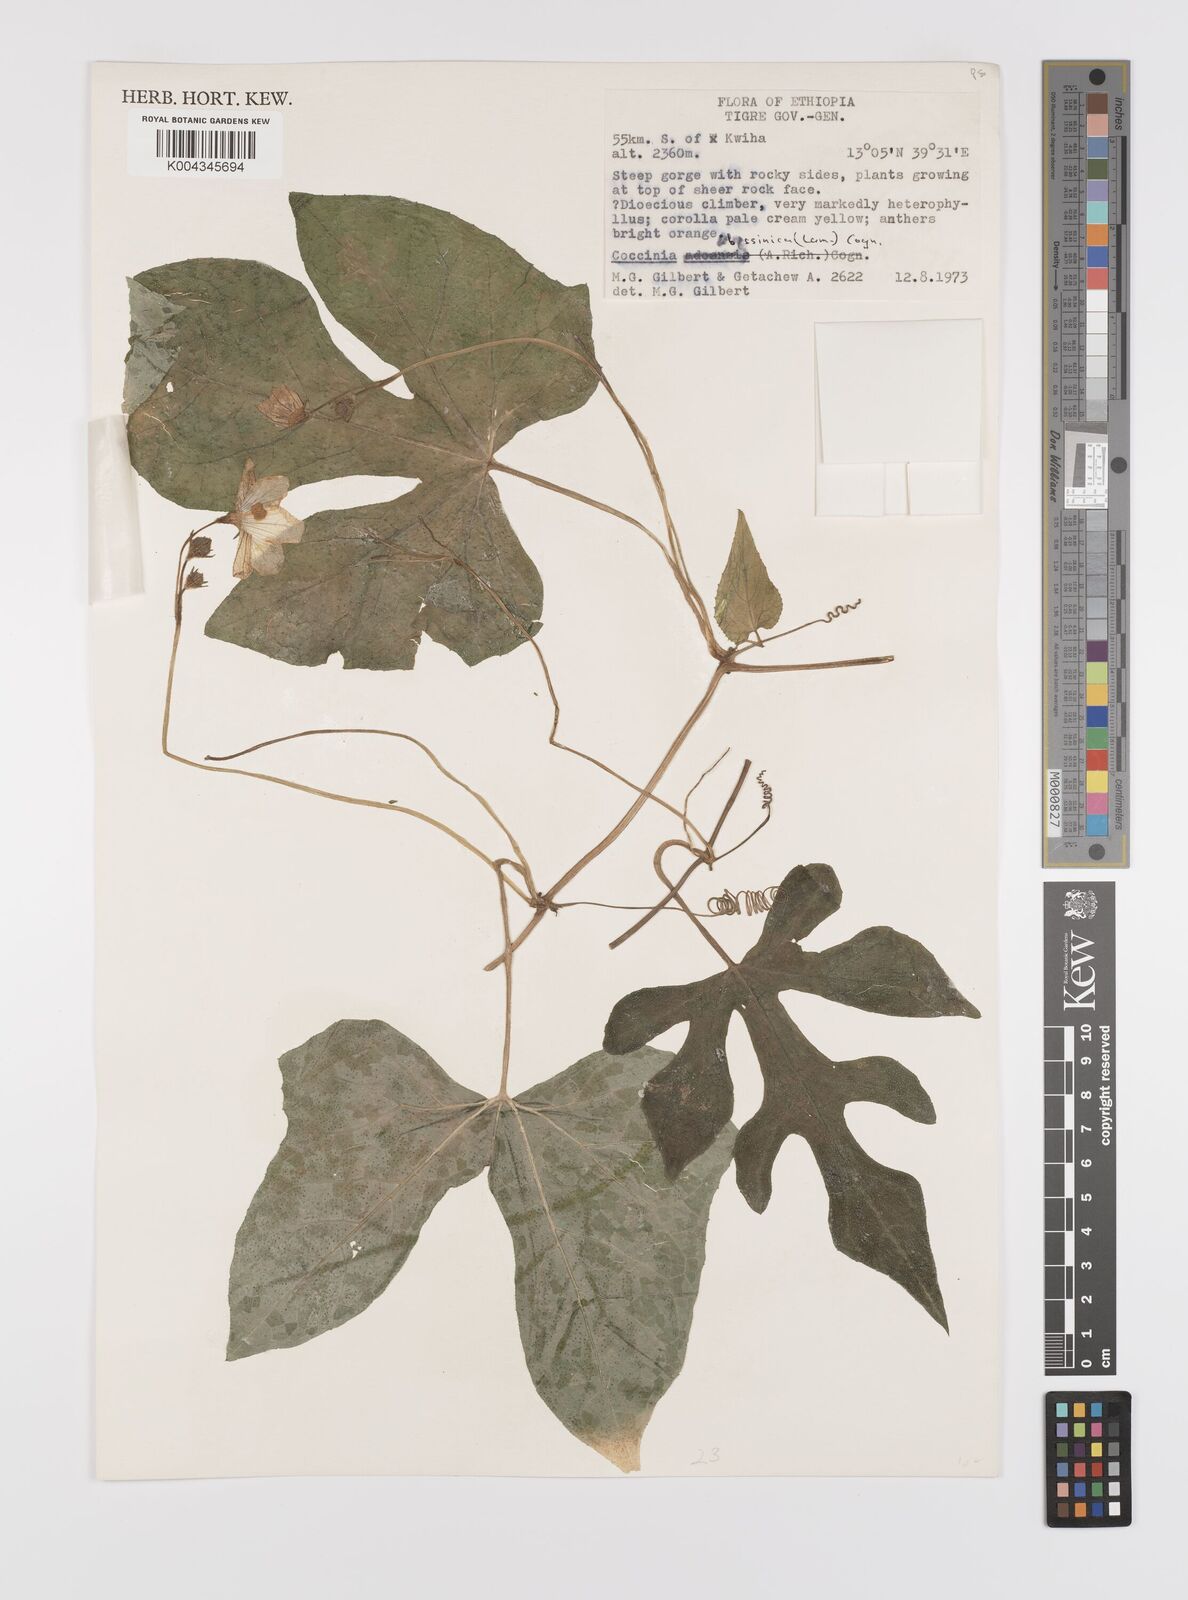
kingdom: Plantae
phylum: Tracheophyta
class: Magnoliopsida
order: Cucurbitales
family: Cucurbitaceae
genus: Coccinia
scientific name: Coccinia abyssinica
